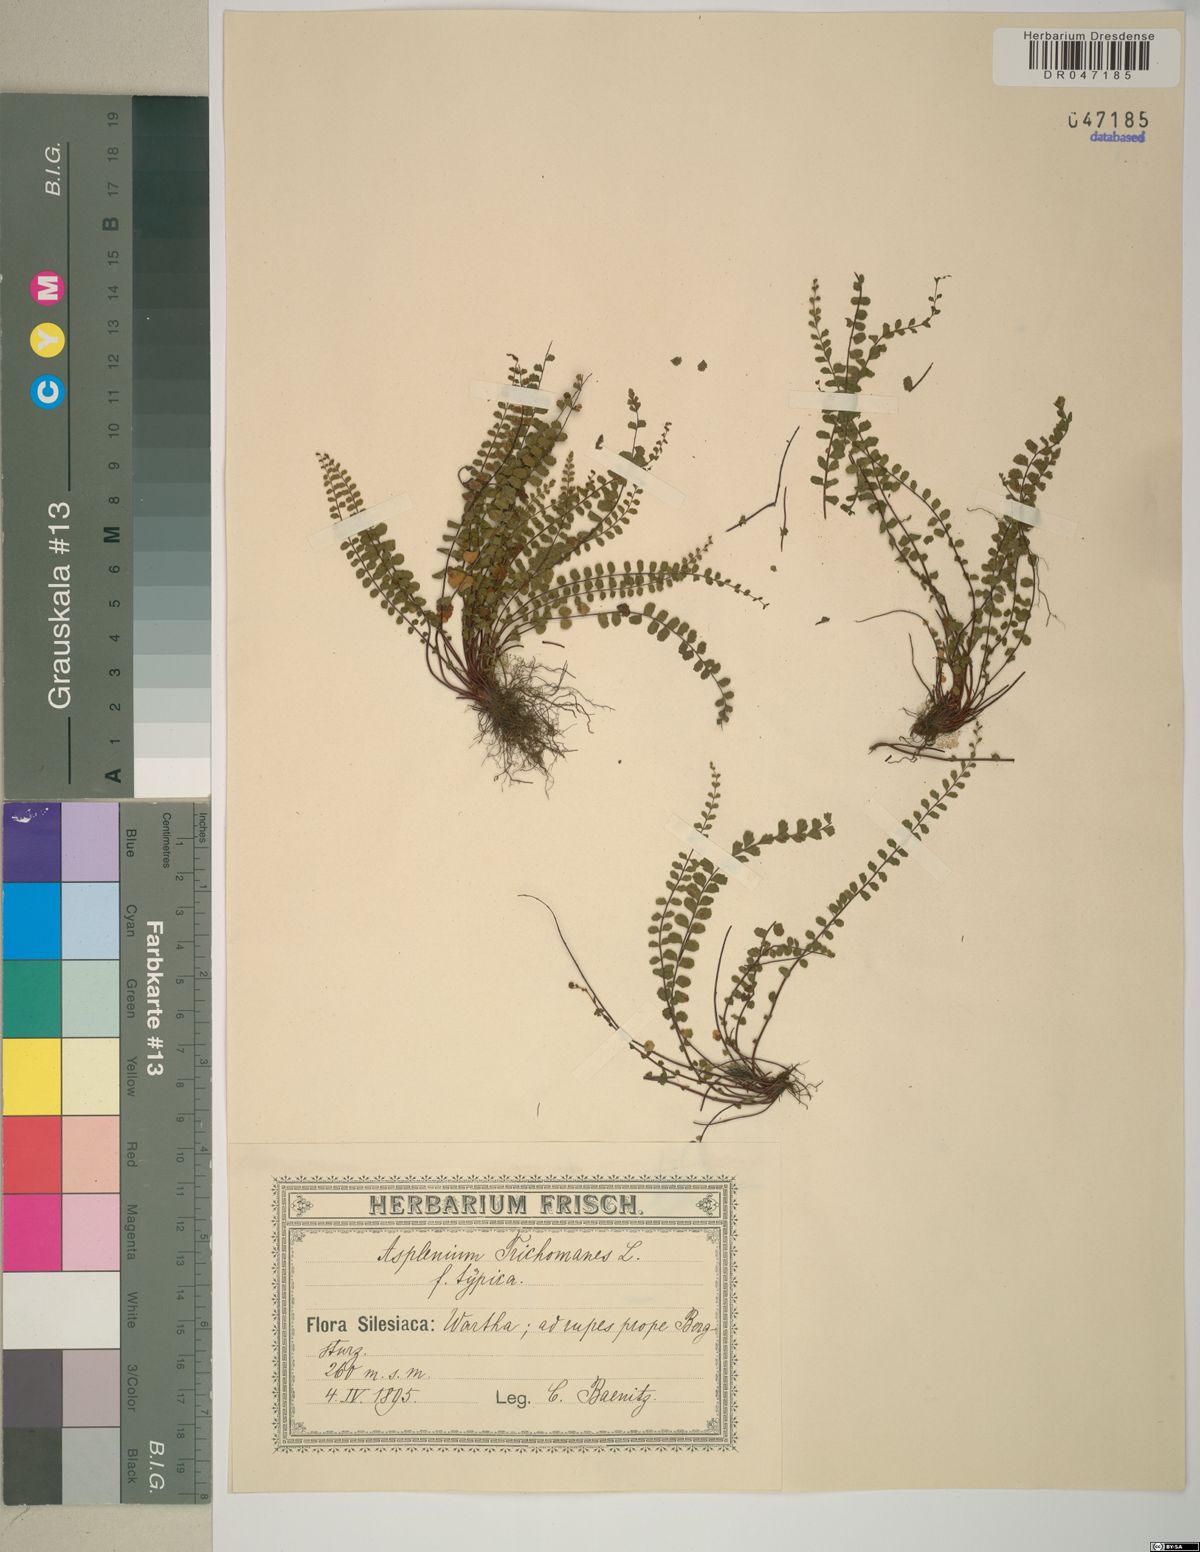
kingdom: Plantae
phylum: Tracheophyta
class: Polypodiopsida
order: Polypodiales
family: Aspleniaceae
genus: Asplenium
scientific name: Asplenium trichomanes
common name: Maidenhair spleenwort
